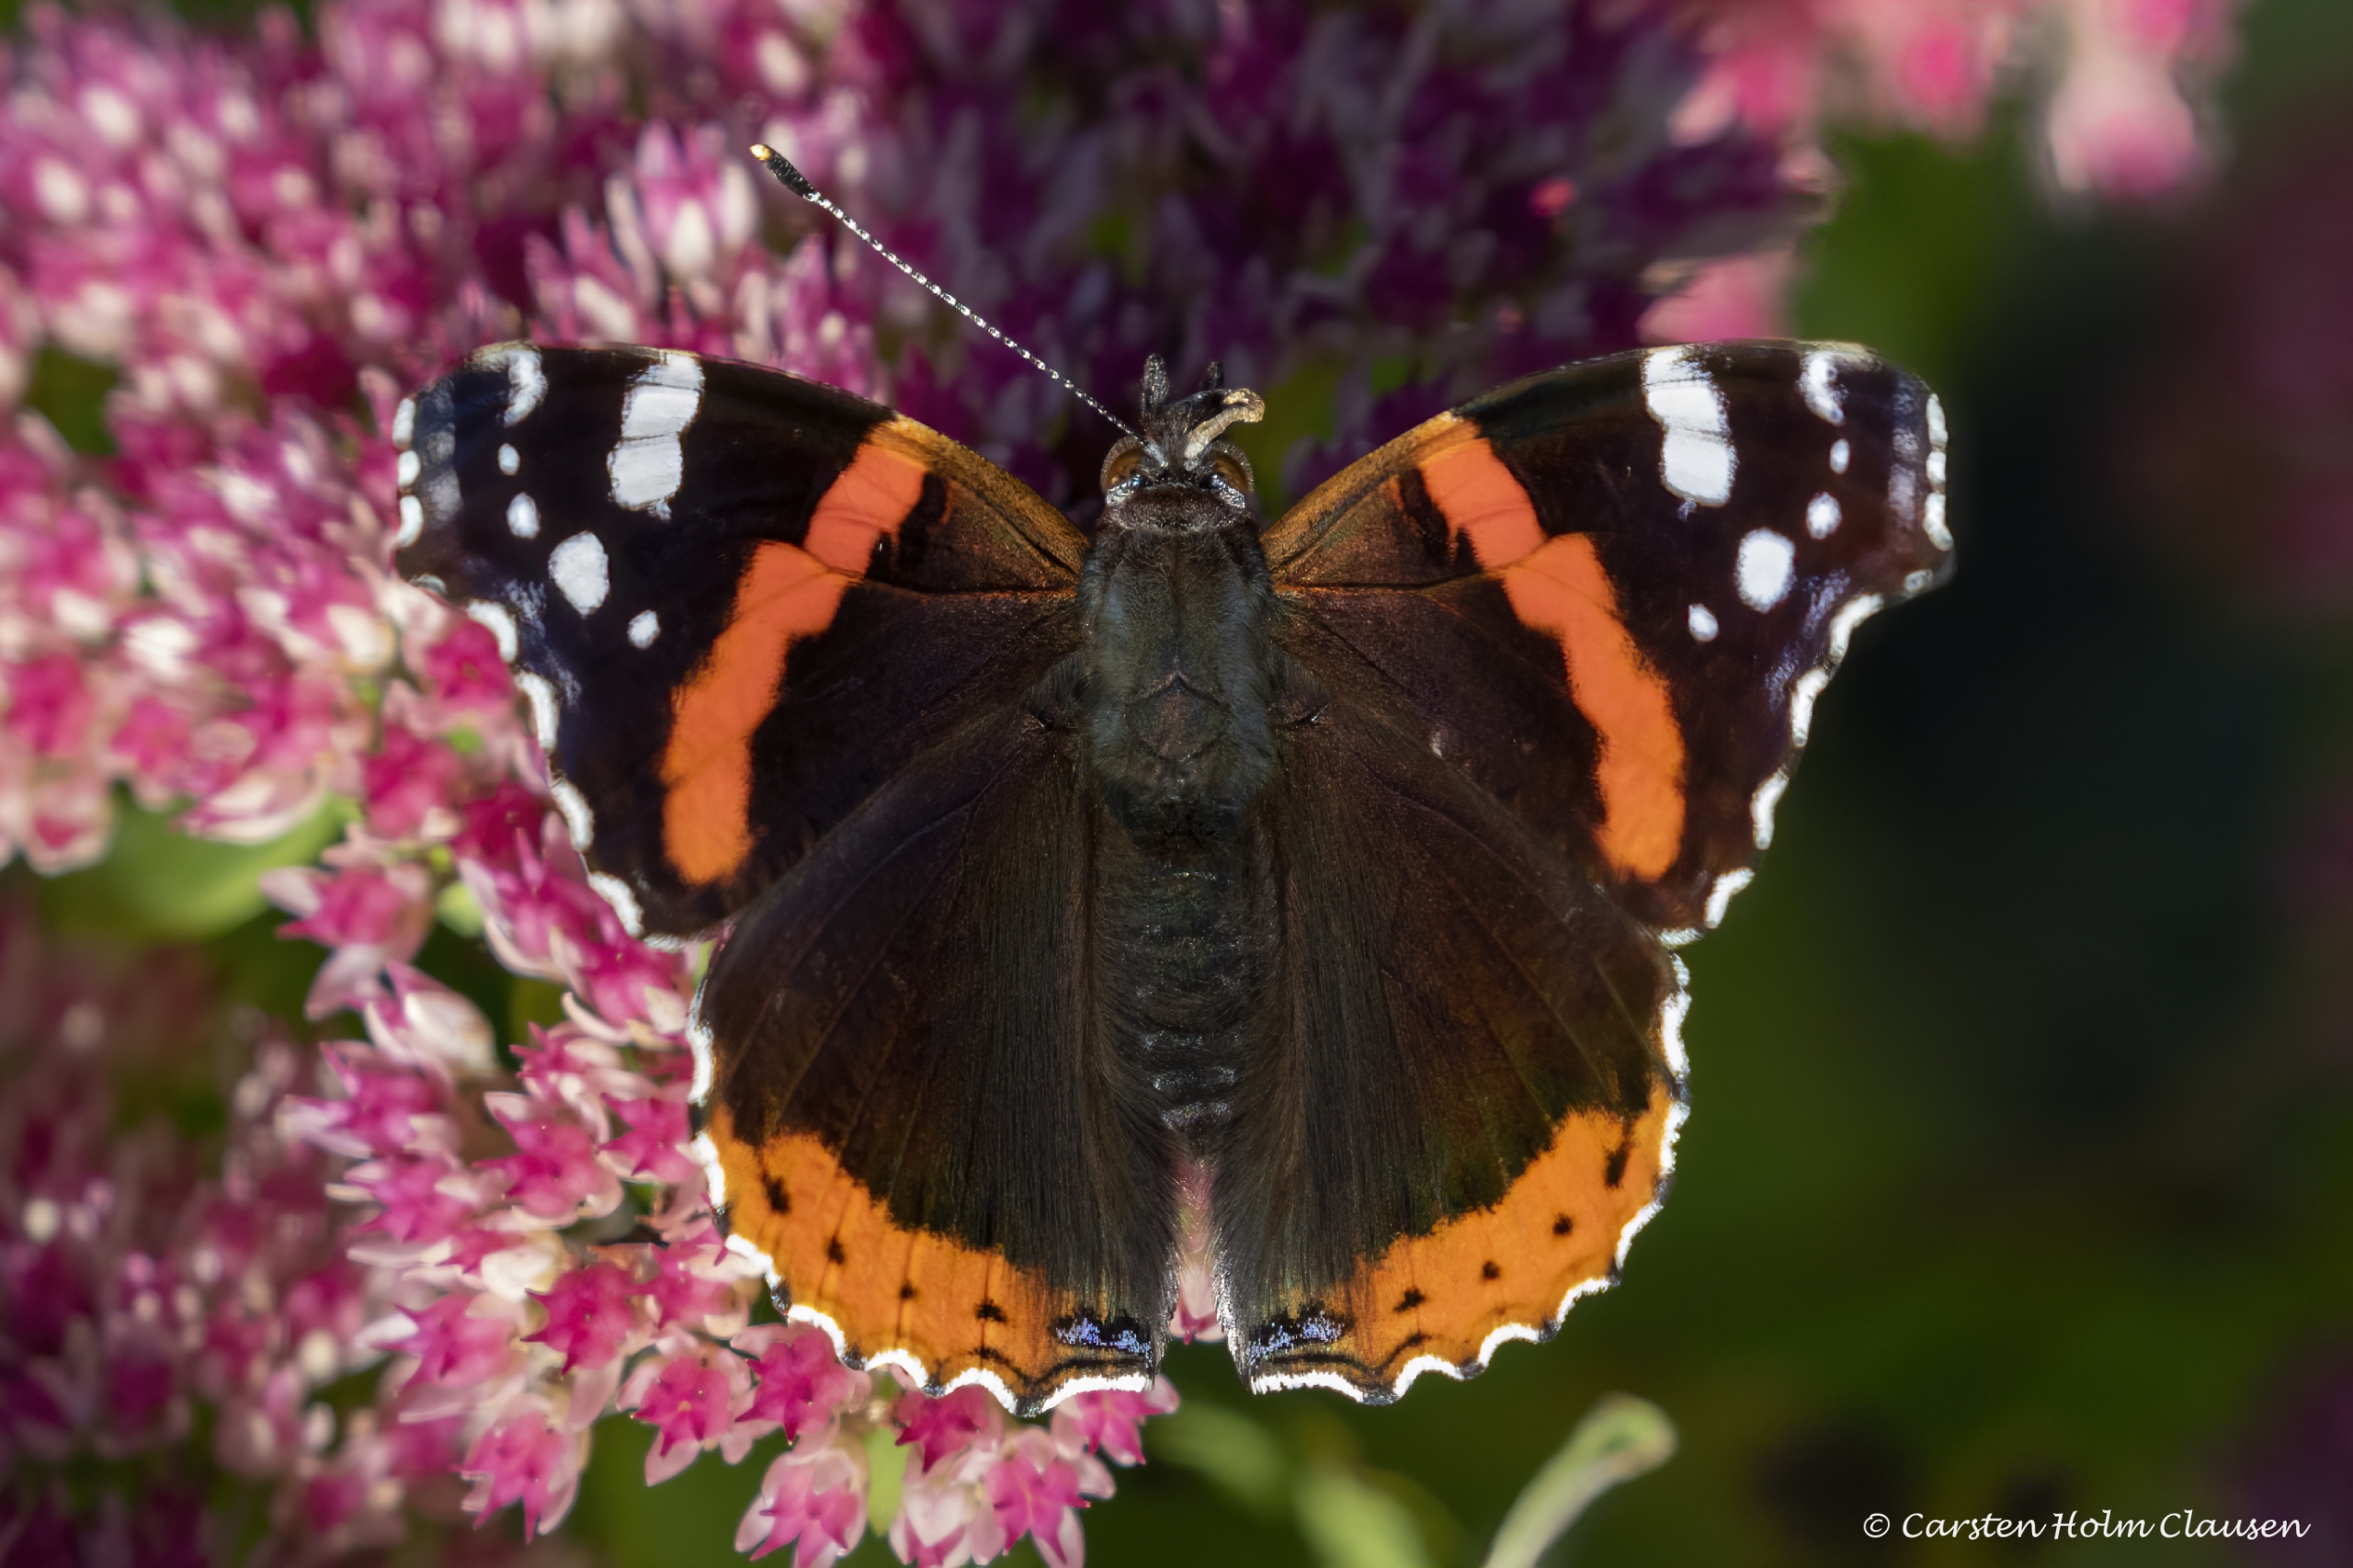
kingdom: Animalia
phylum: Arthropoda
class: Insecta
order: Lepidoptera
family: Nymphalidae
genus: Vanessa
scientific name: Vanessa atalanta
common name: Admiral
